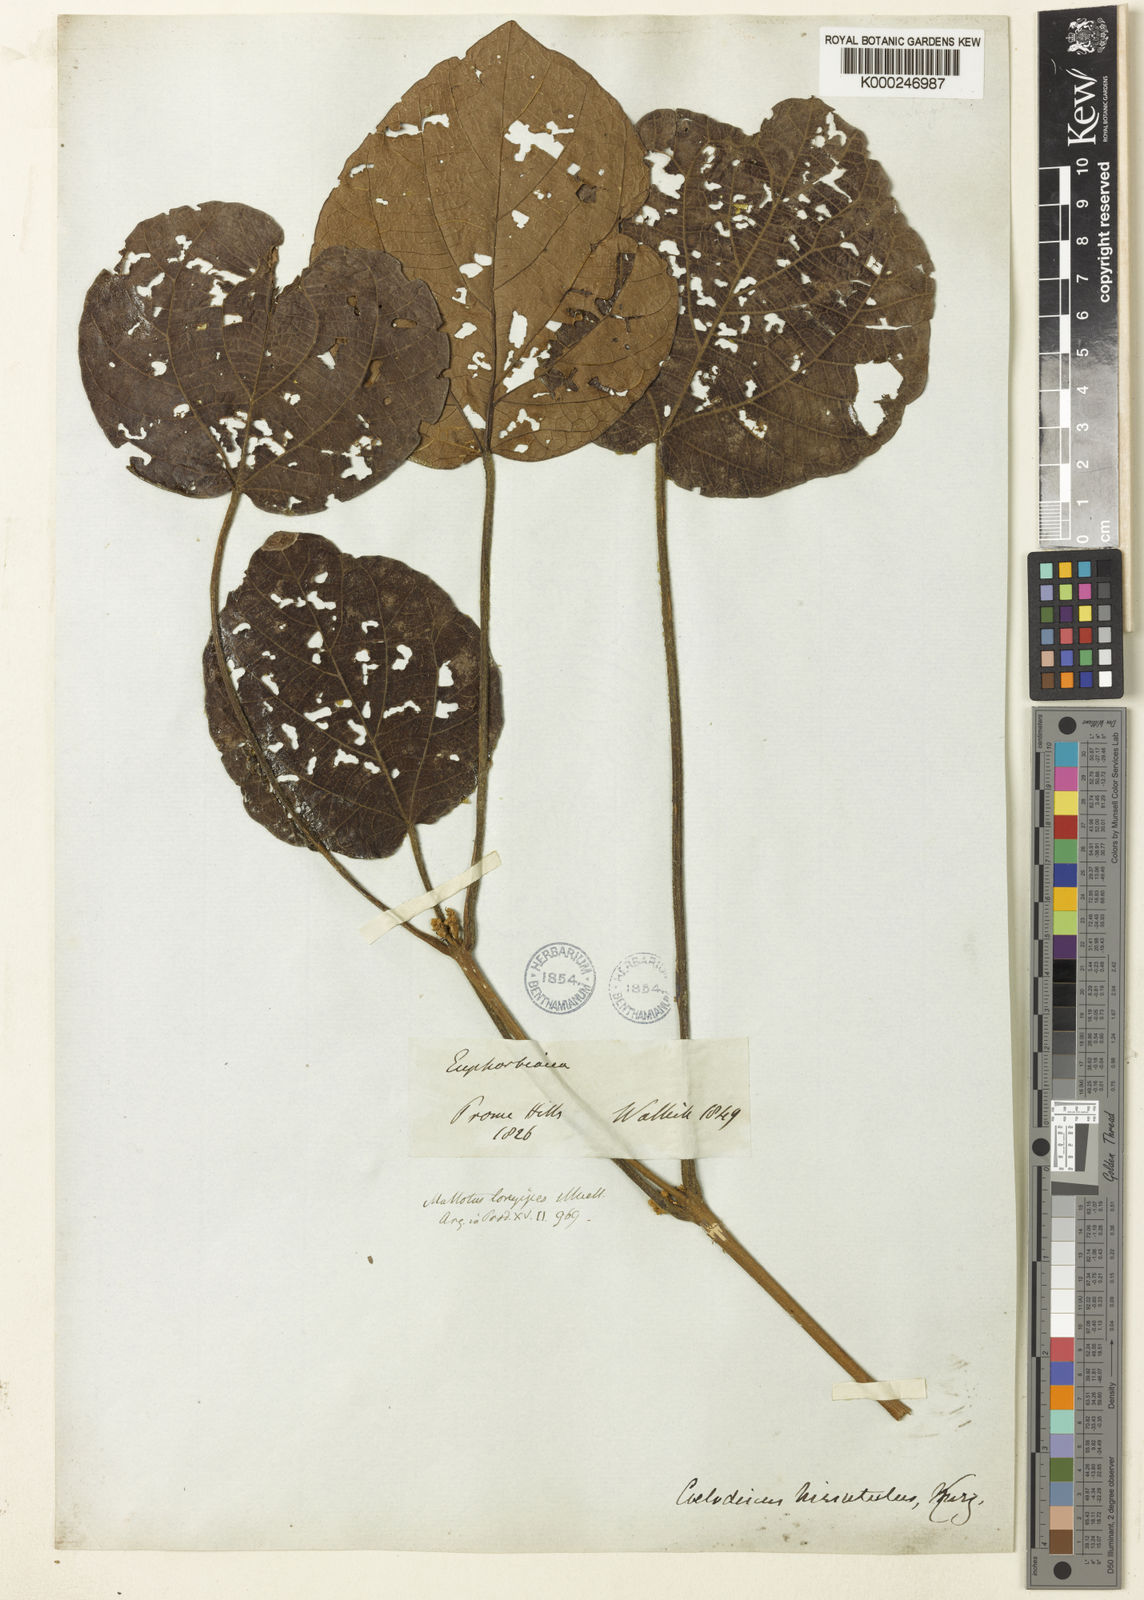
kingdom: Plantae
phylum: Tracheophyta
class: Magnoliopsida
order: Malpighiales
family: Euphorbiaceae
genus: Mallotus
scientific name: Mallotus longipes
